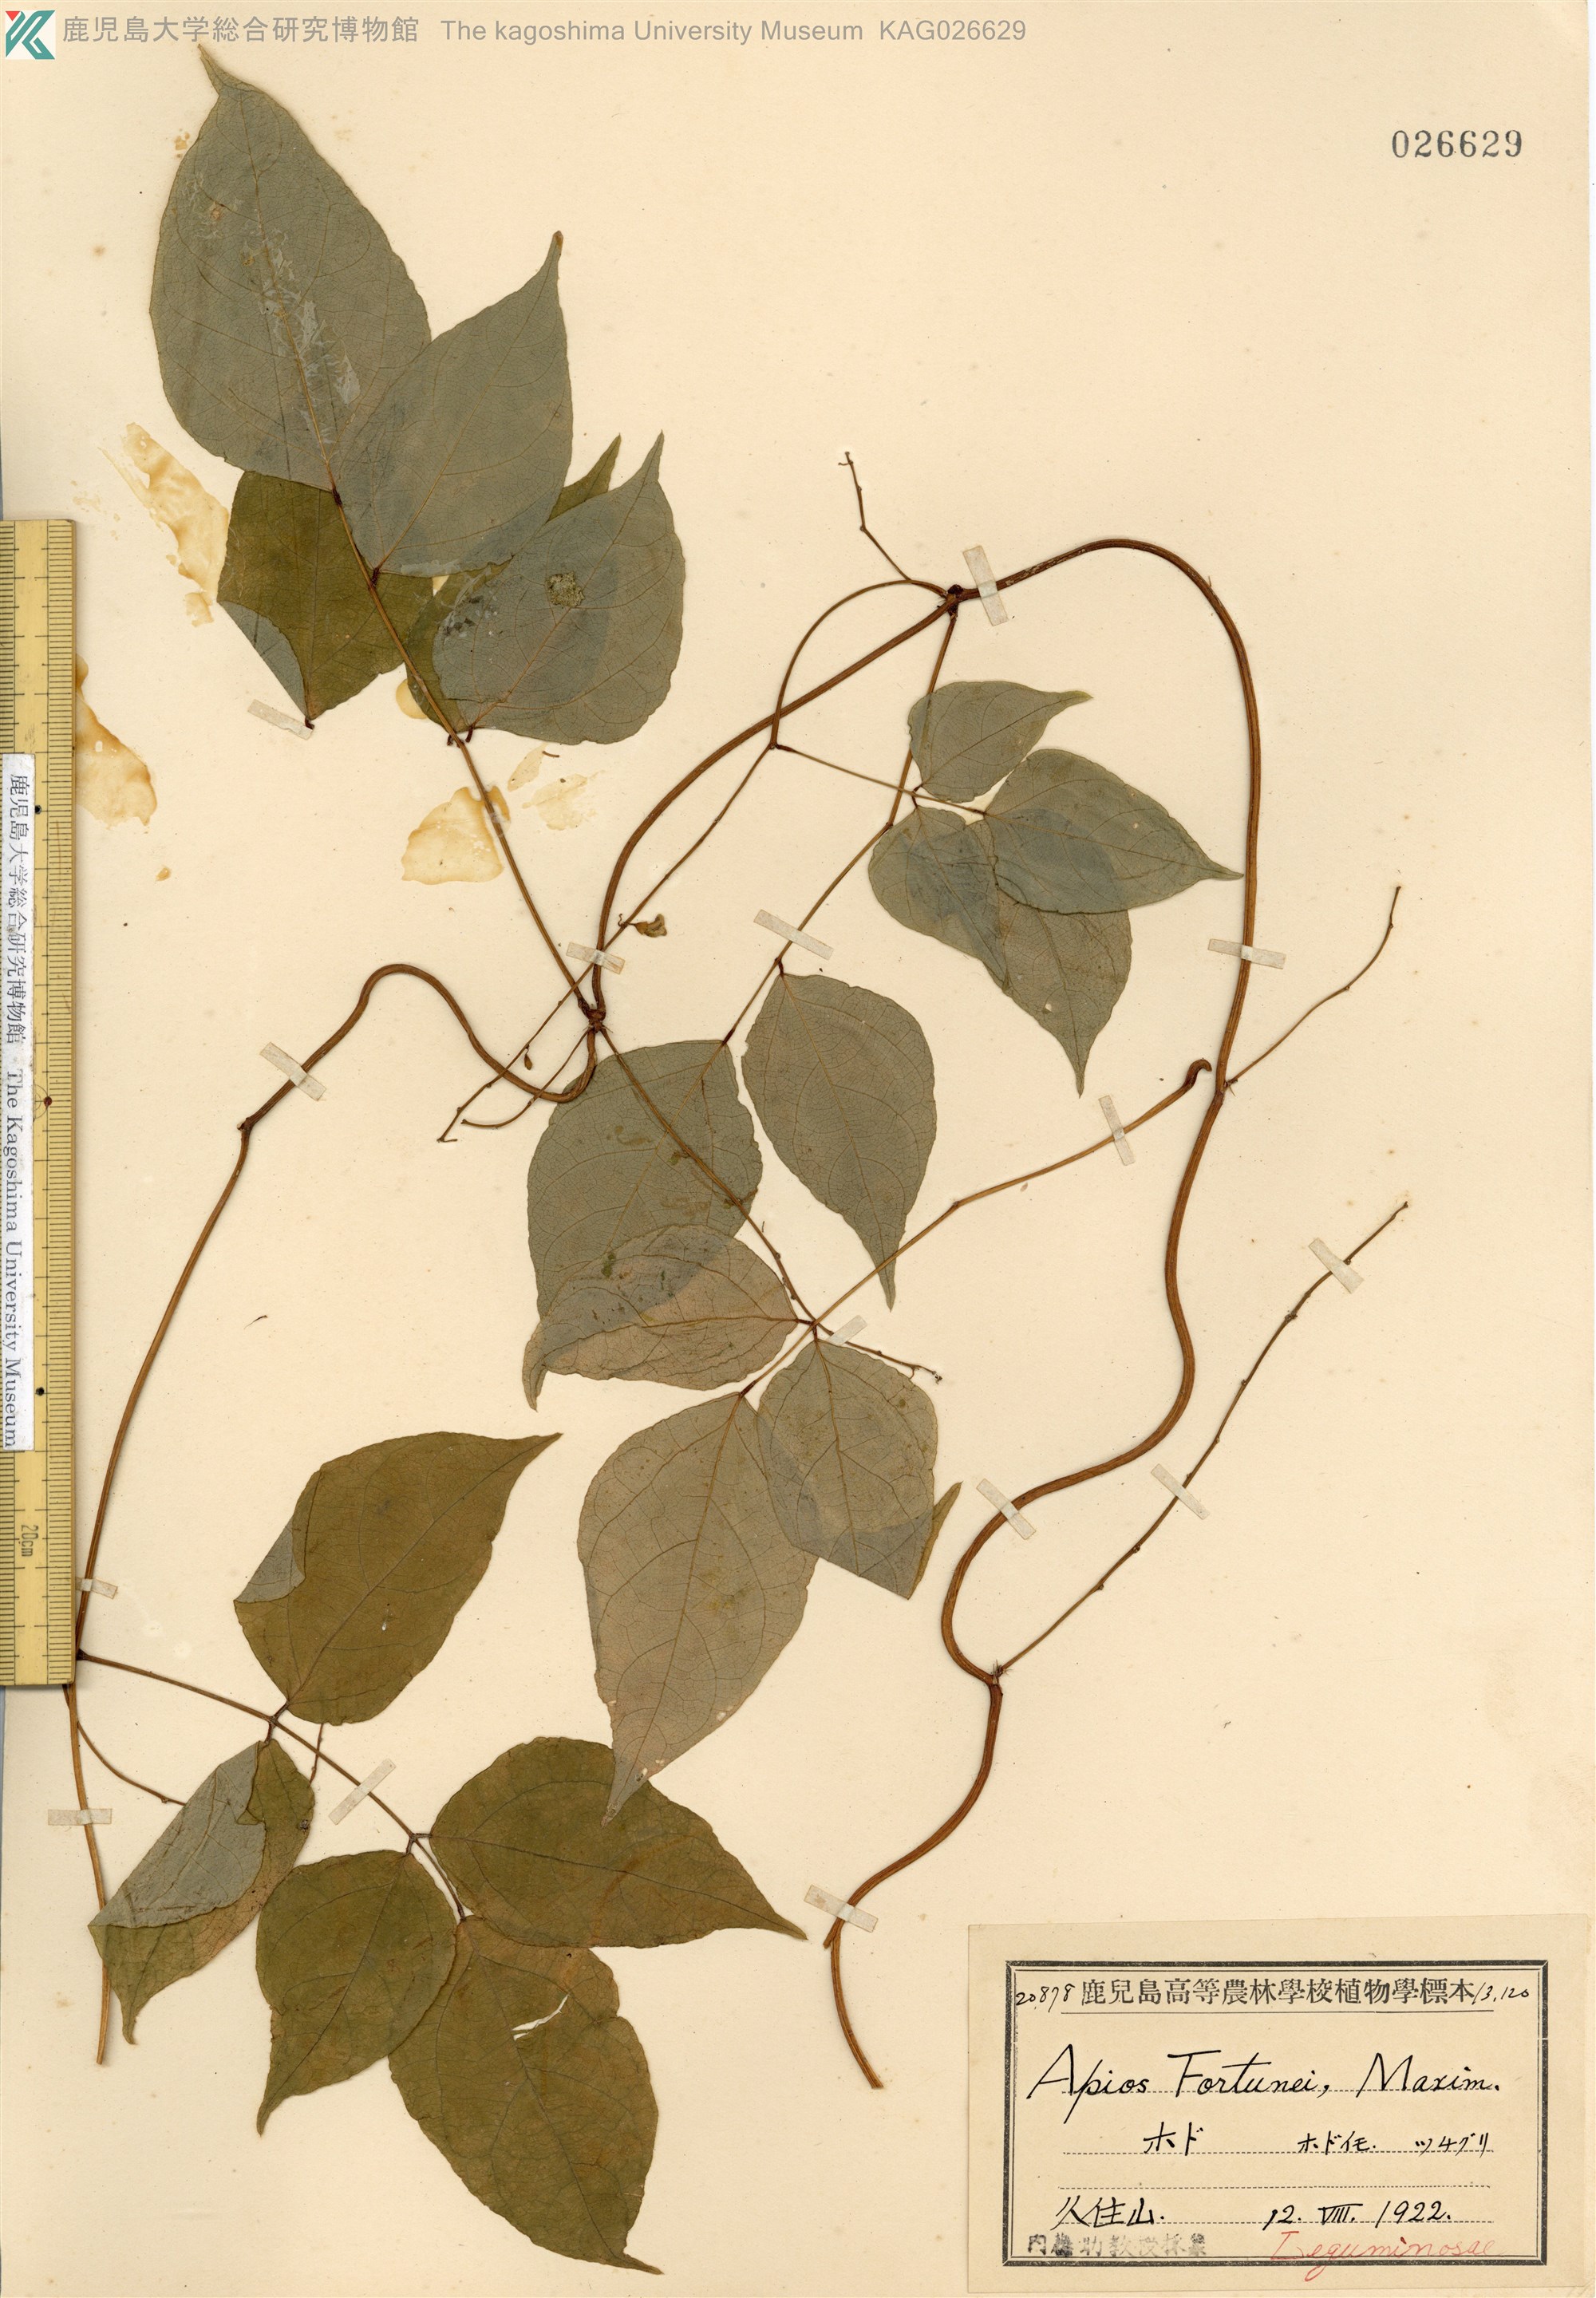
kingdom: Plantae
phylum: Tracheophyta
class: Magnoliopsida
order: Fabales
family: Fabaceae
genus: Apios
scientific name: Apios fortunei
